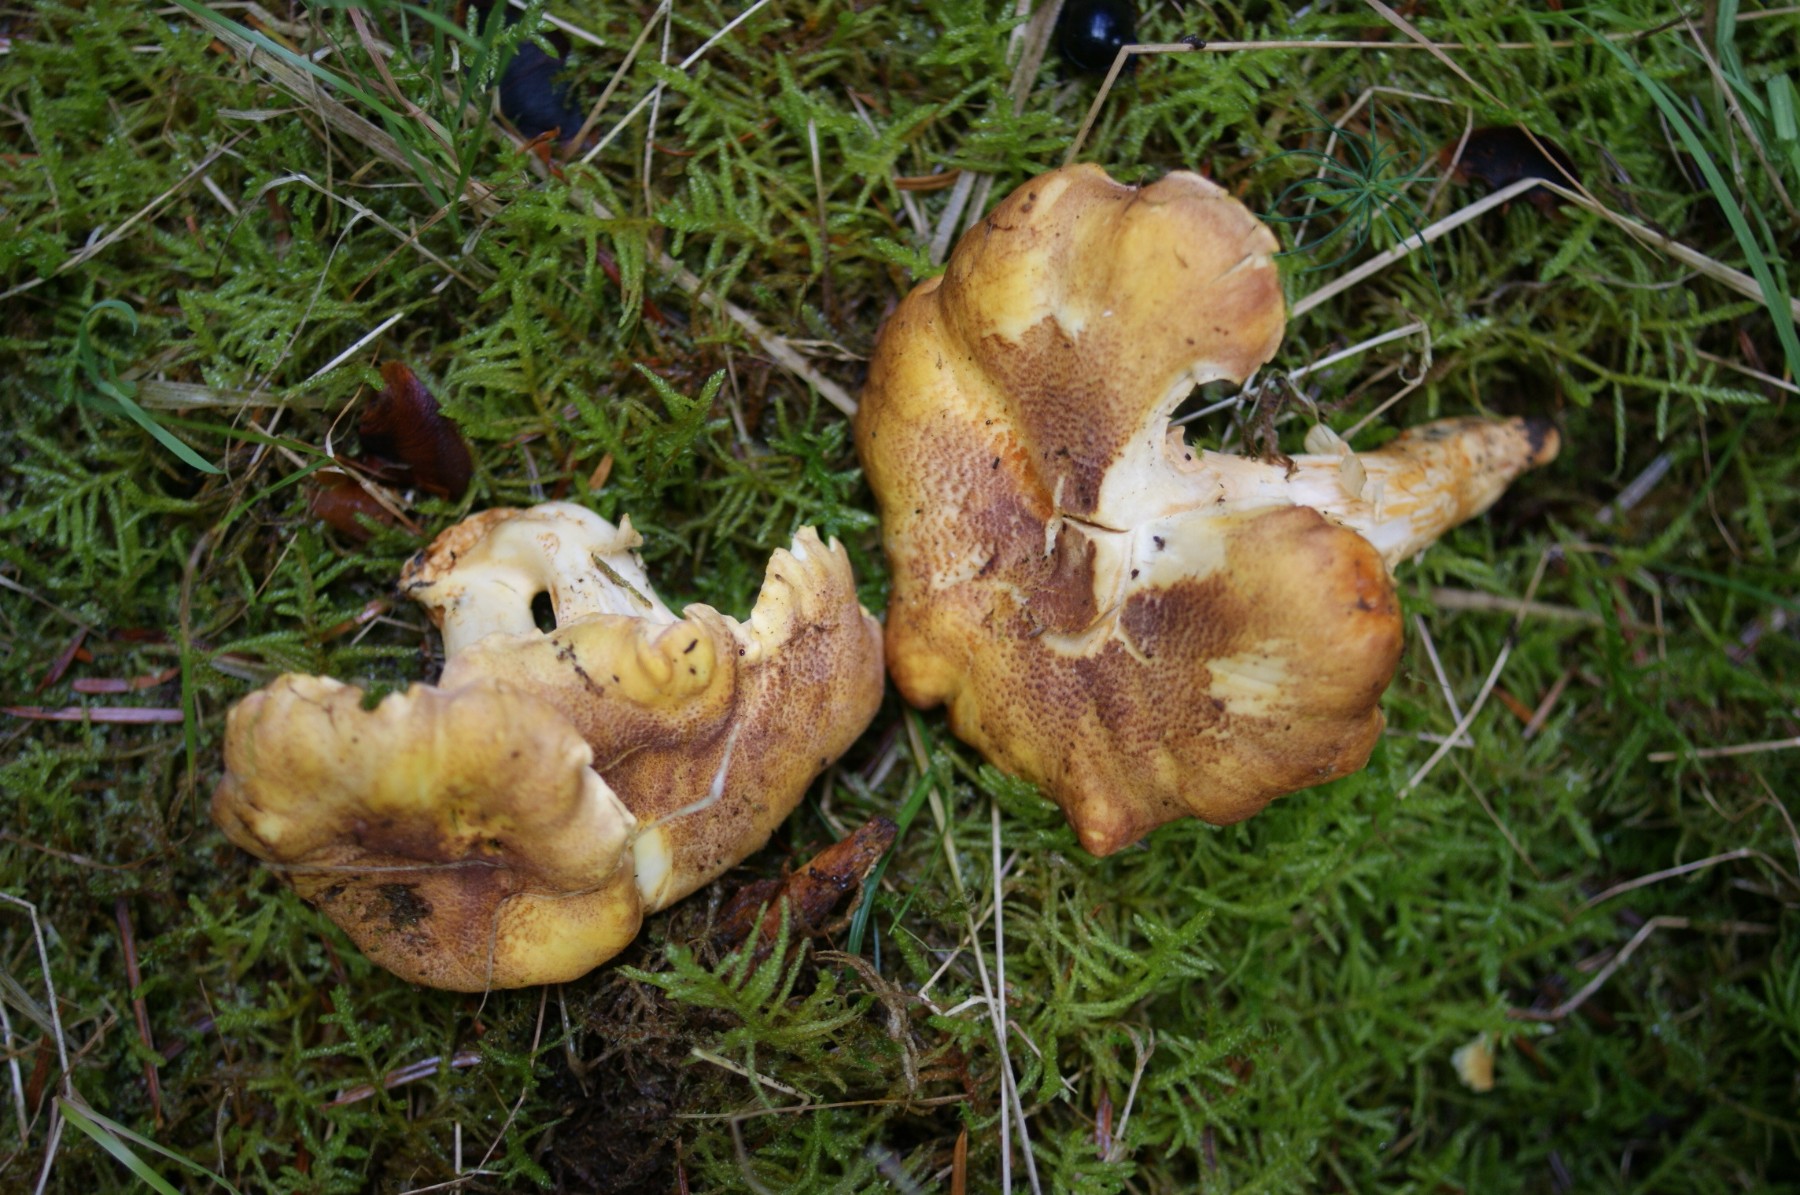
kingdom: Fungi
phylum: Basidiomycota
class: Agaricomycetes
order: Cantharellales
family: Hydnaceae
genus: Cantharellus
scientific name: Cantharellus amethysteus
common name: ametyst-kantarel
